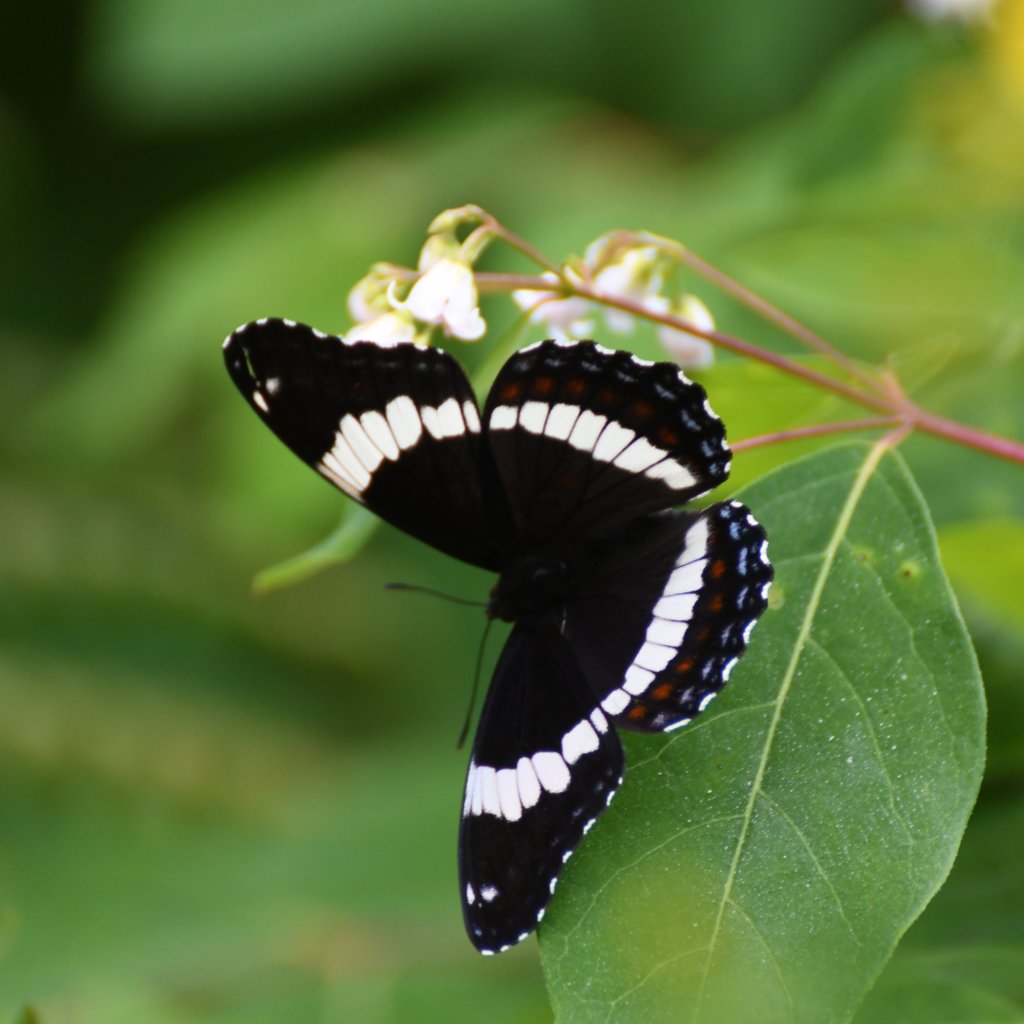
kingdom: Animalia
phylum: Arthropoda
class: Insecta
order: Lepidoptera
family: Nymphalidae
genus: Limenitis
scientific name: Limenitis arthemis
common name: Red-spotted Admiral
